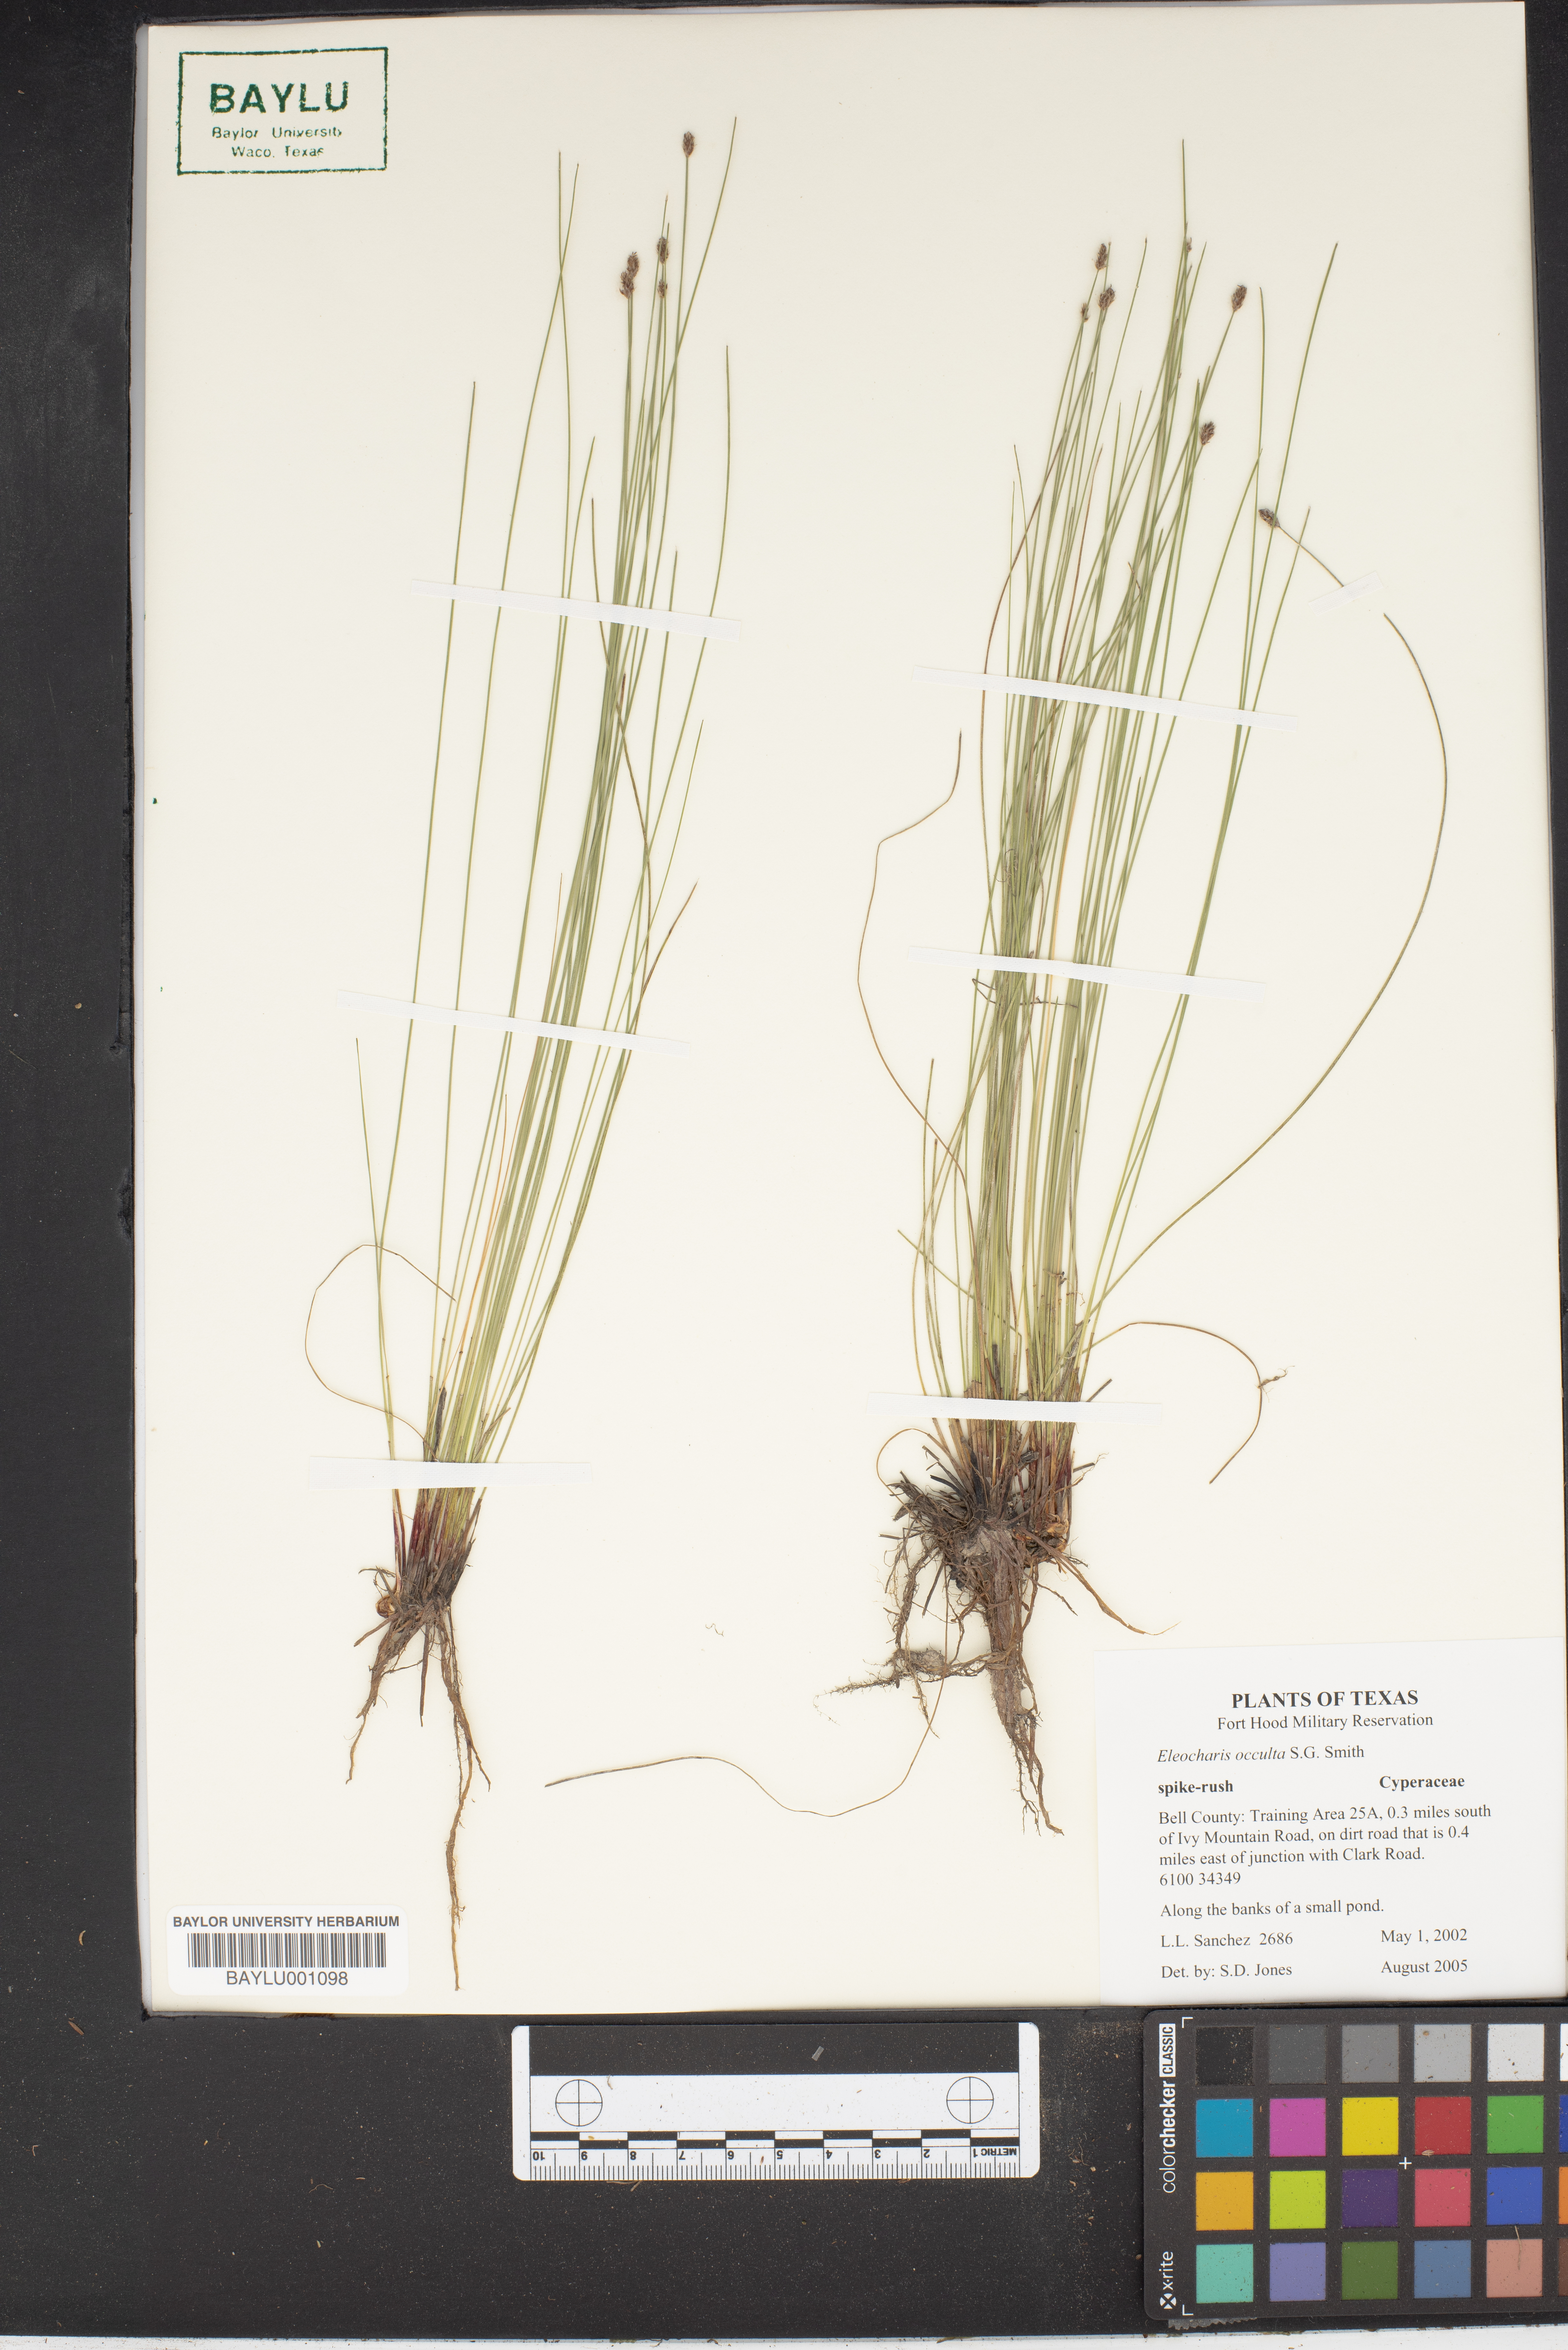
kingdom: Plantae
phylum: Tracheophyta
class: Liliopsida
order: Poales
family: Cyperaceae
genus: Eleocharis
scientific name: Eleocharis occulta
